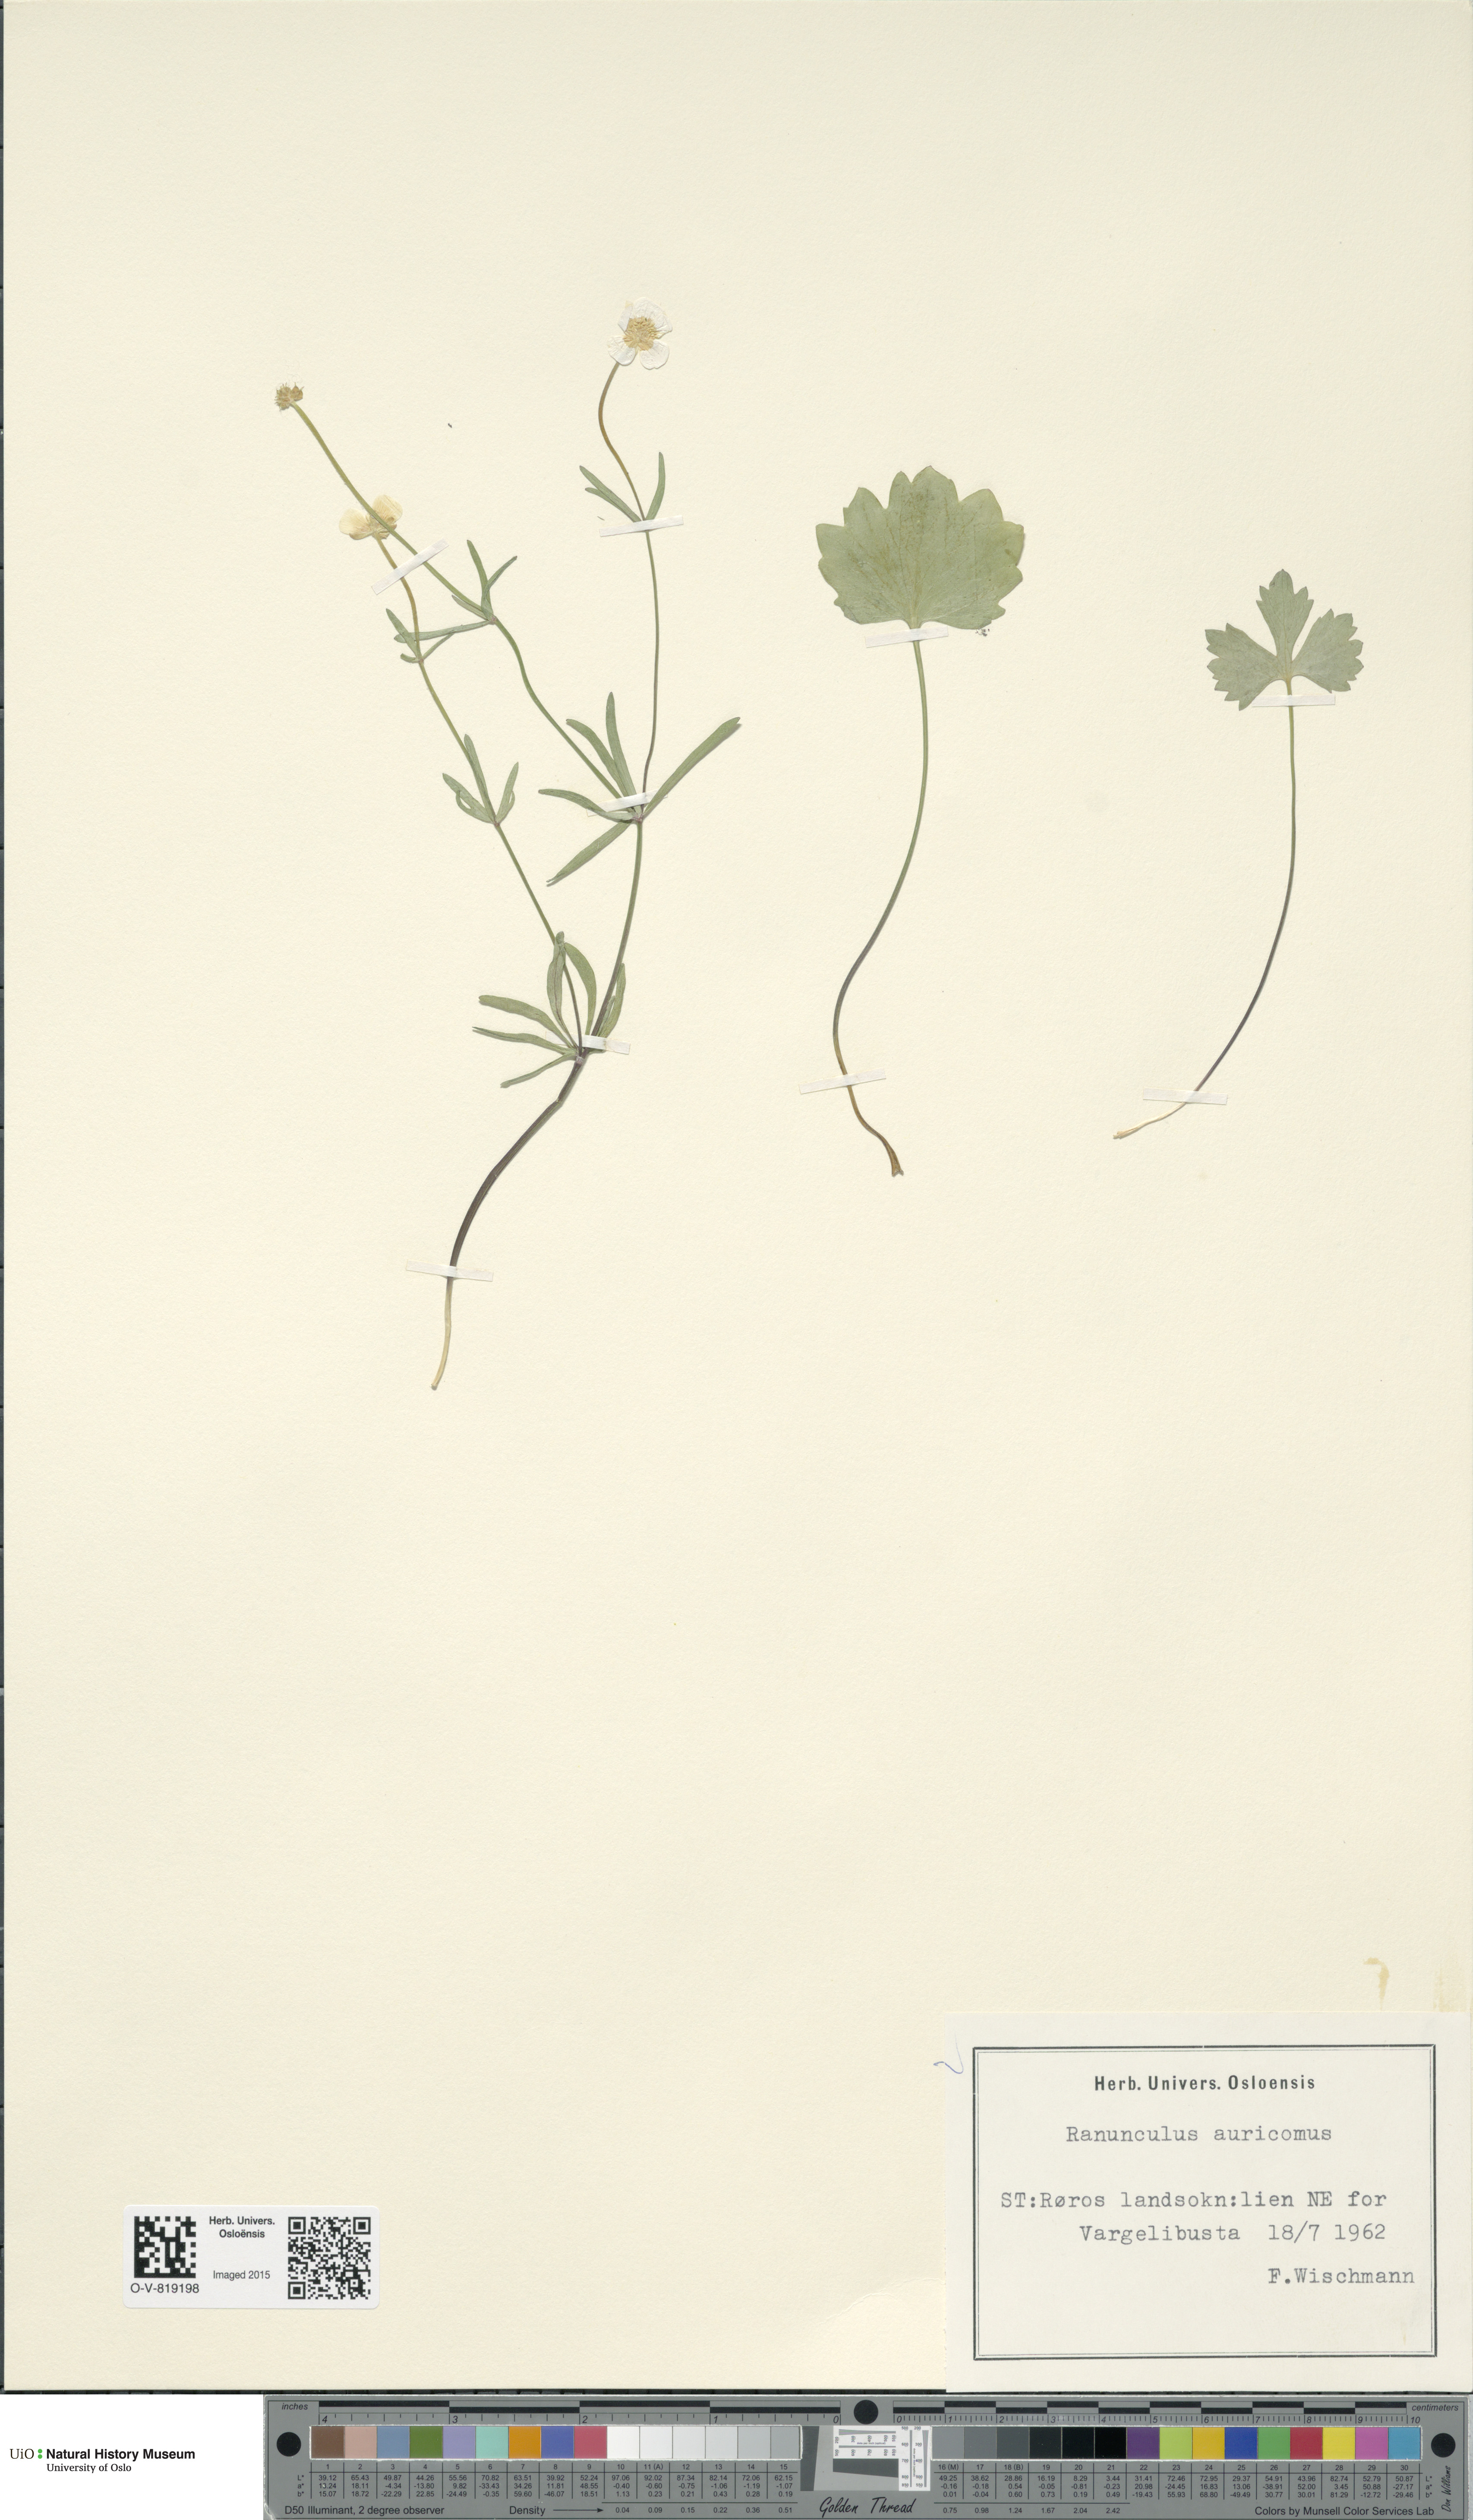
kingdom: Plantae
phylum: Tracheophyta
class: Magnoliopsida
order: Ranunculales
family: Ranunculaceae
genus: Ranunculus
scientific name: Ranunculus auricomus
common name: Goldilocks buttercup
